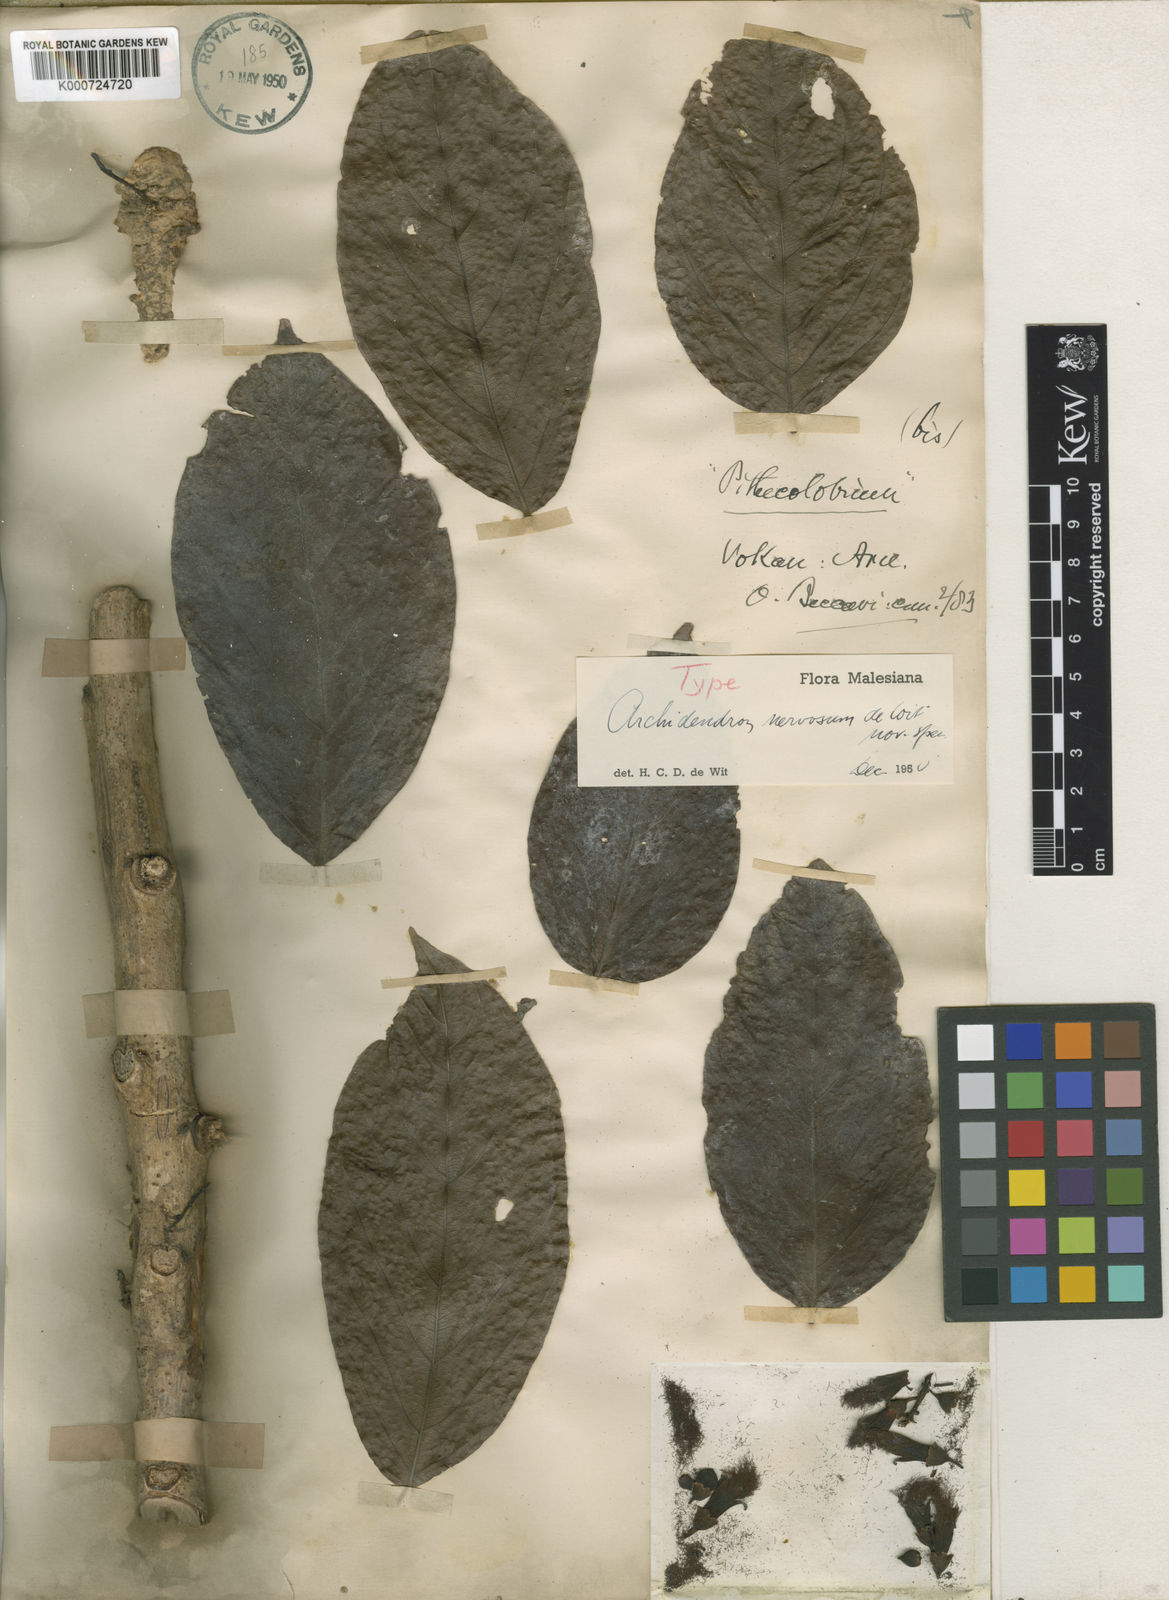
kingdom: Plantae
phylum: Tracheophyta
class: Magnoliopsida
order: Fabales
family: Fabaceae
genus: Archidendron
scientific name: Archidendron nervosum
